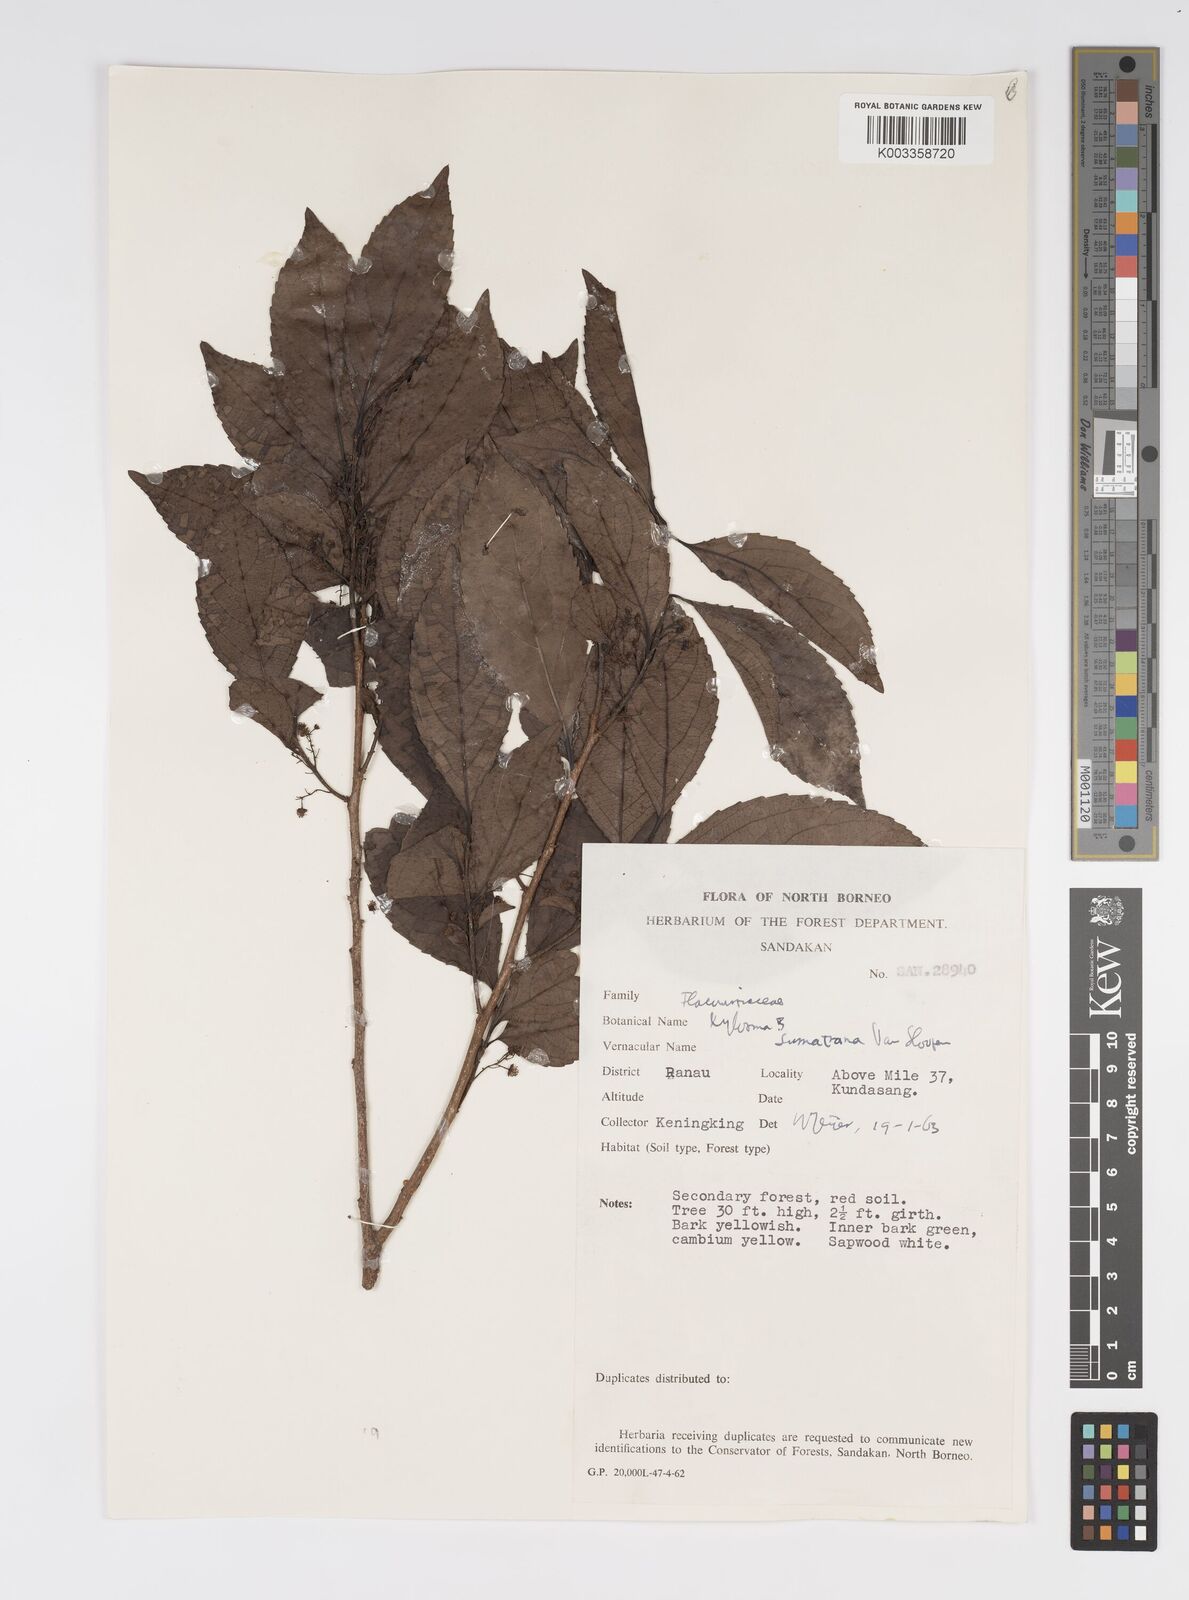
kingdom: Plantae
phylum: Tracheophyta
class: Magnoliopsida
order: Malpighiales
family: Salicaceae
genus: Xylosma
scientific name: Xylosma sumatrana
